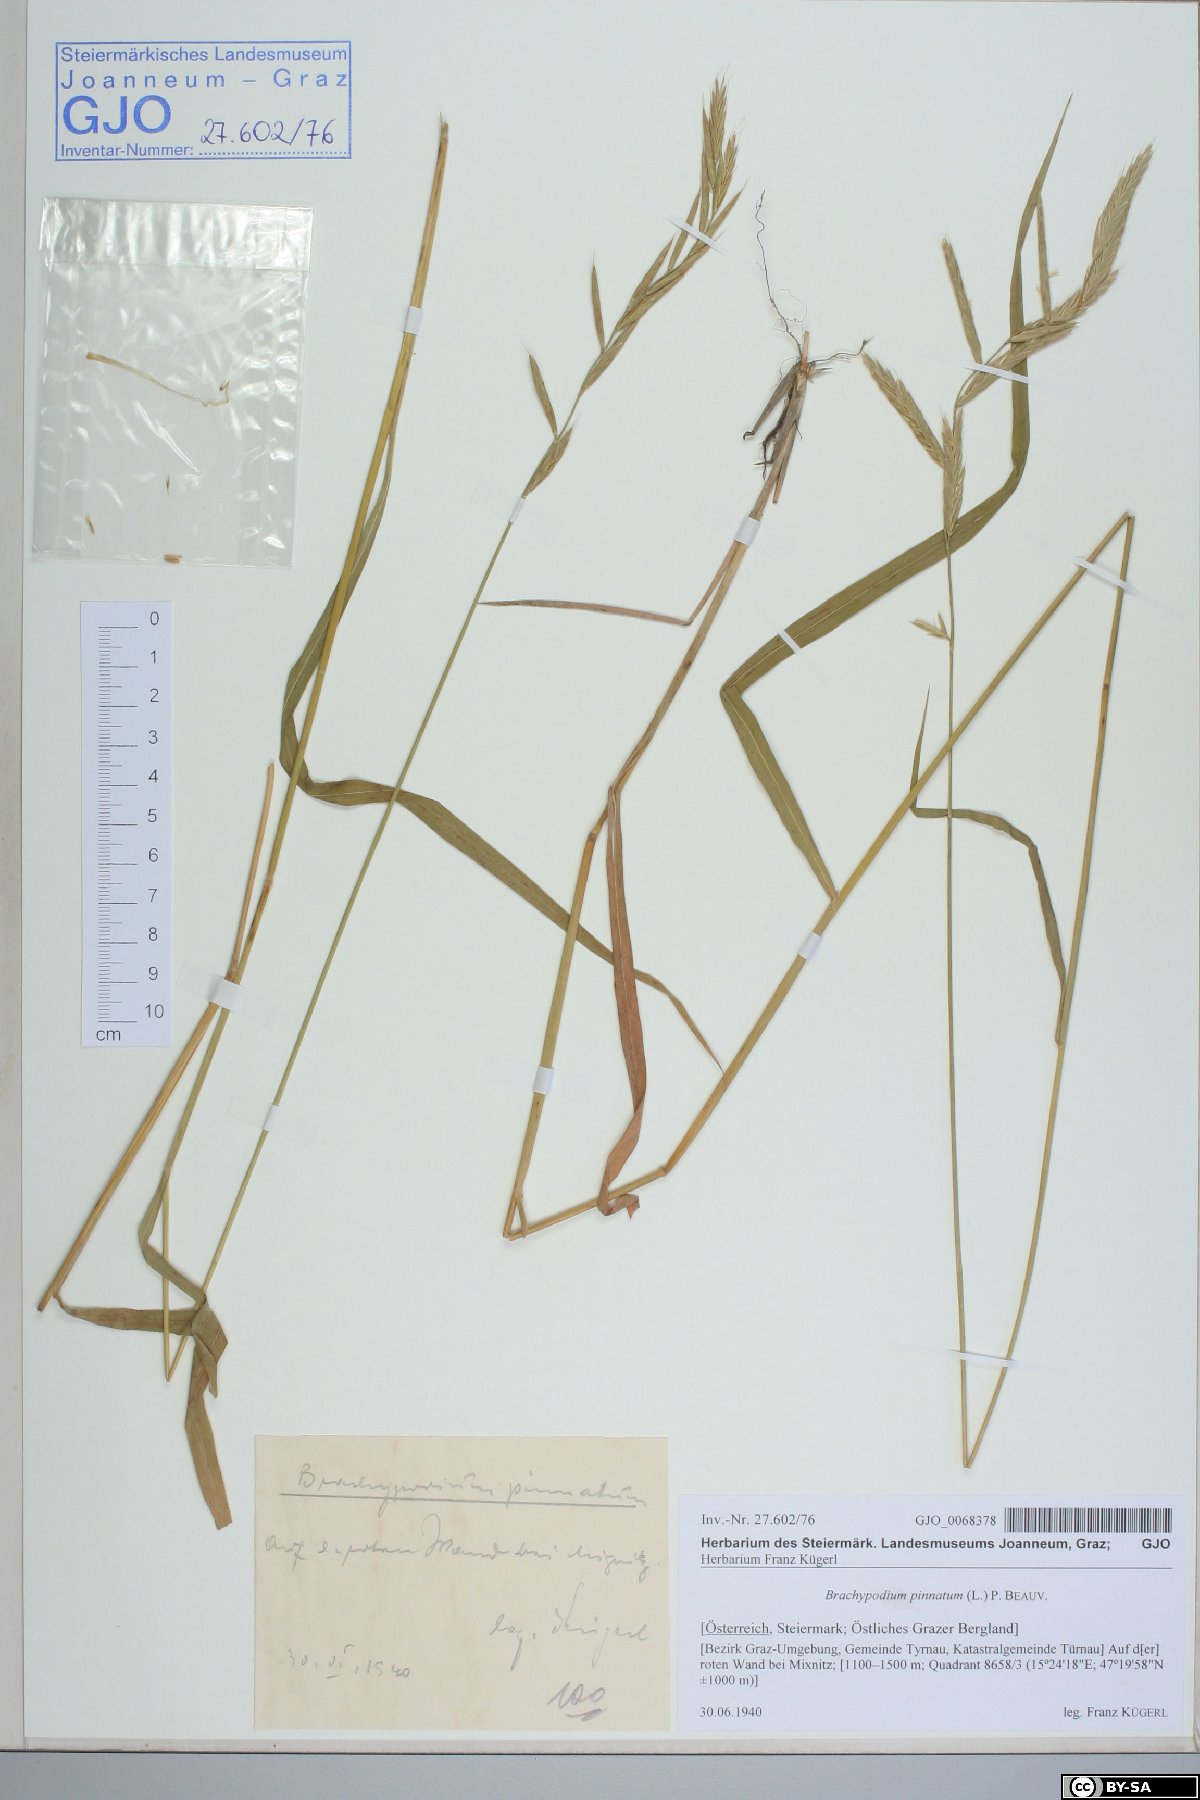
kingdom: Plantae
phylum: Tracheophyta
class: Liliopsida
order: Poales
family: Poaceae
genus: Brachypodium
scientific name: Brachypodium pinnatum
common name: Tor grass
